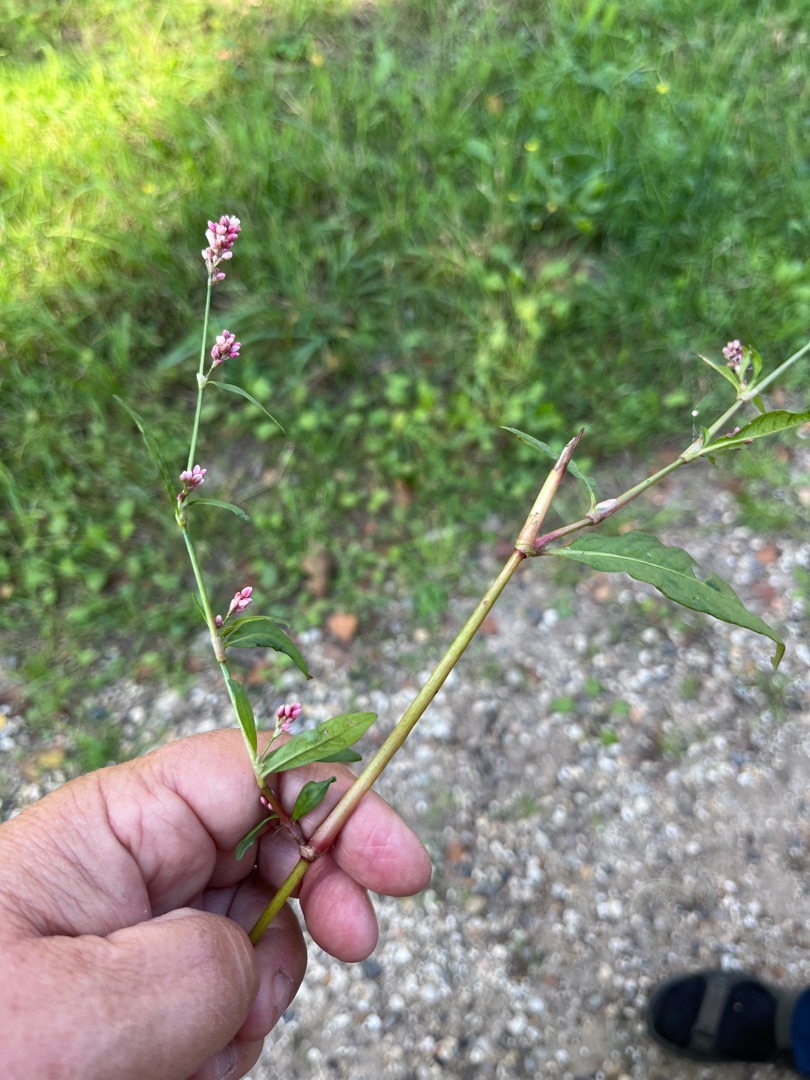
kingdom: Plantae
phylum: Tracheophyta
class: Magnoliopsida
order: Caryophyllales
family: Polygonaceae
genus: Persicaria
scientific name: Persicaria maculosa
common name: Fersken-pileurt
